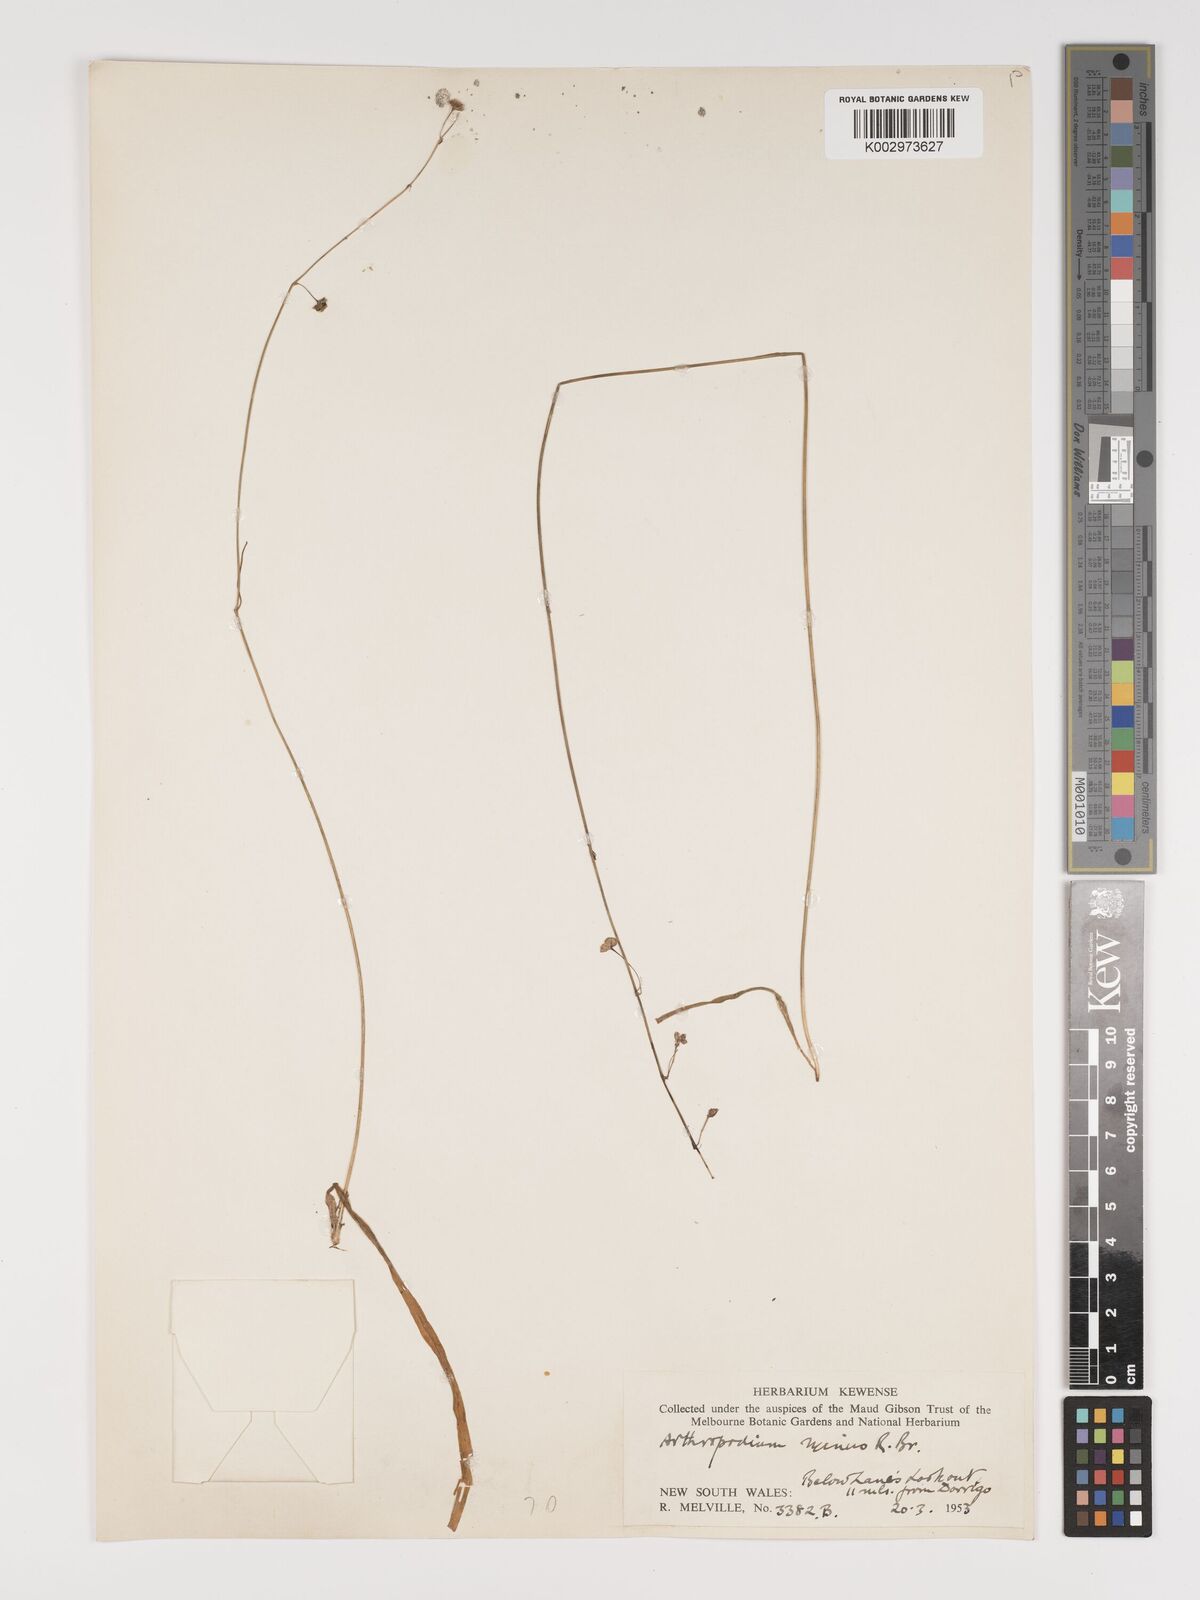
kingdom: Plantae
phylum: Tracheophyta
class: Liliopsida
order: Asparagales
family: Asparagaceae
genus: Arthropodium
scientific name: Arthropodium milleflorum
